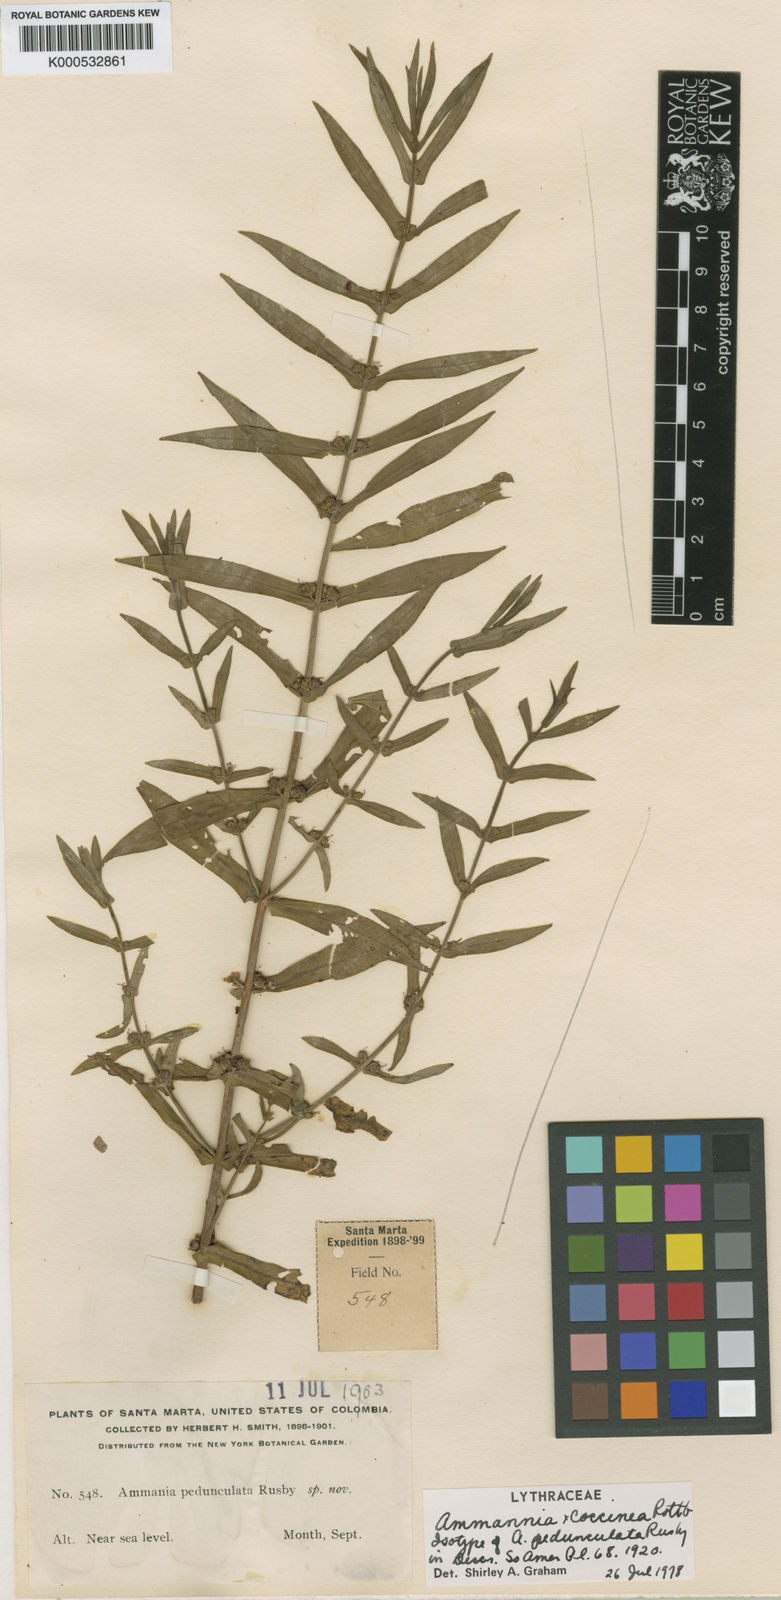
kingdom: Plantae
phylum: Tracheophyta
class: Magnoliopsida
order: Myrtales
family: Lythraceae
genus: Ammannia
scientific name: Ammannia coccinea
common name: Valley redstem
